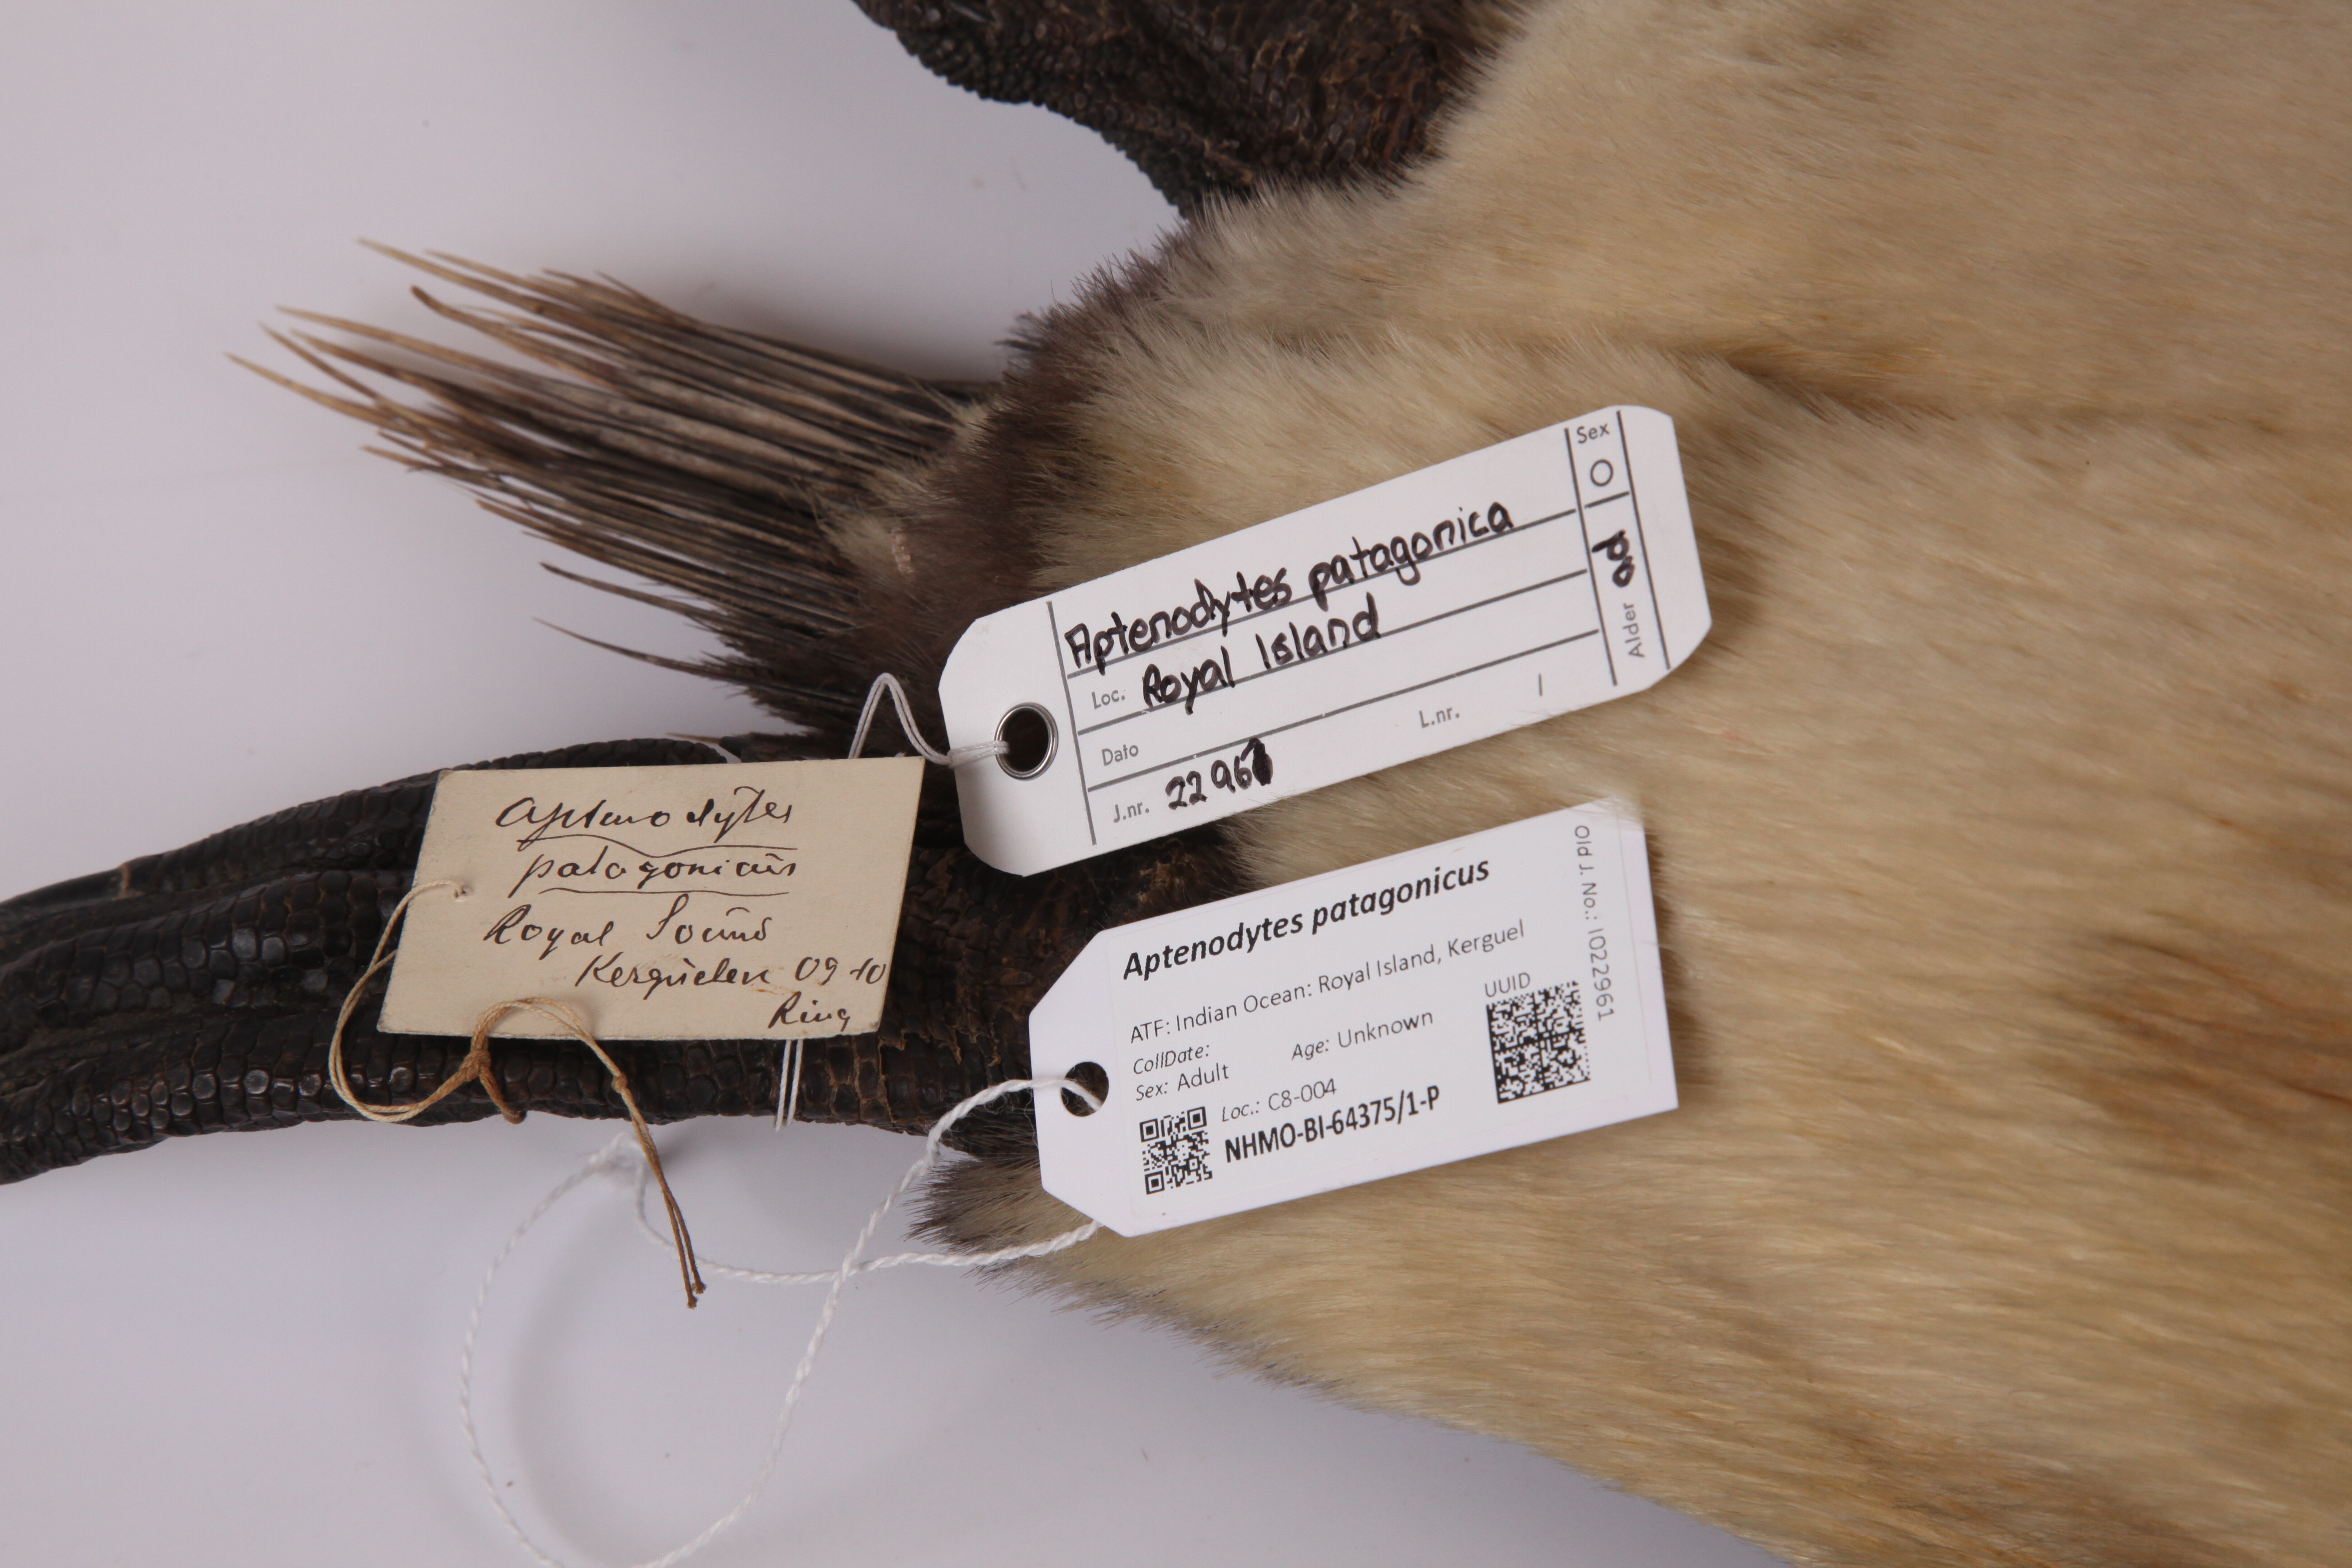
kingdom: Animalia
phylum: Chordata
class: Aves
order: Sphenisciformes
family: Spheniscidae
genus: Aptenodytes
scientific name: Aptenodytes patagonicus
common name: King penguin
